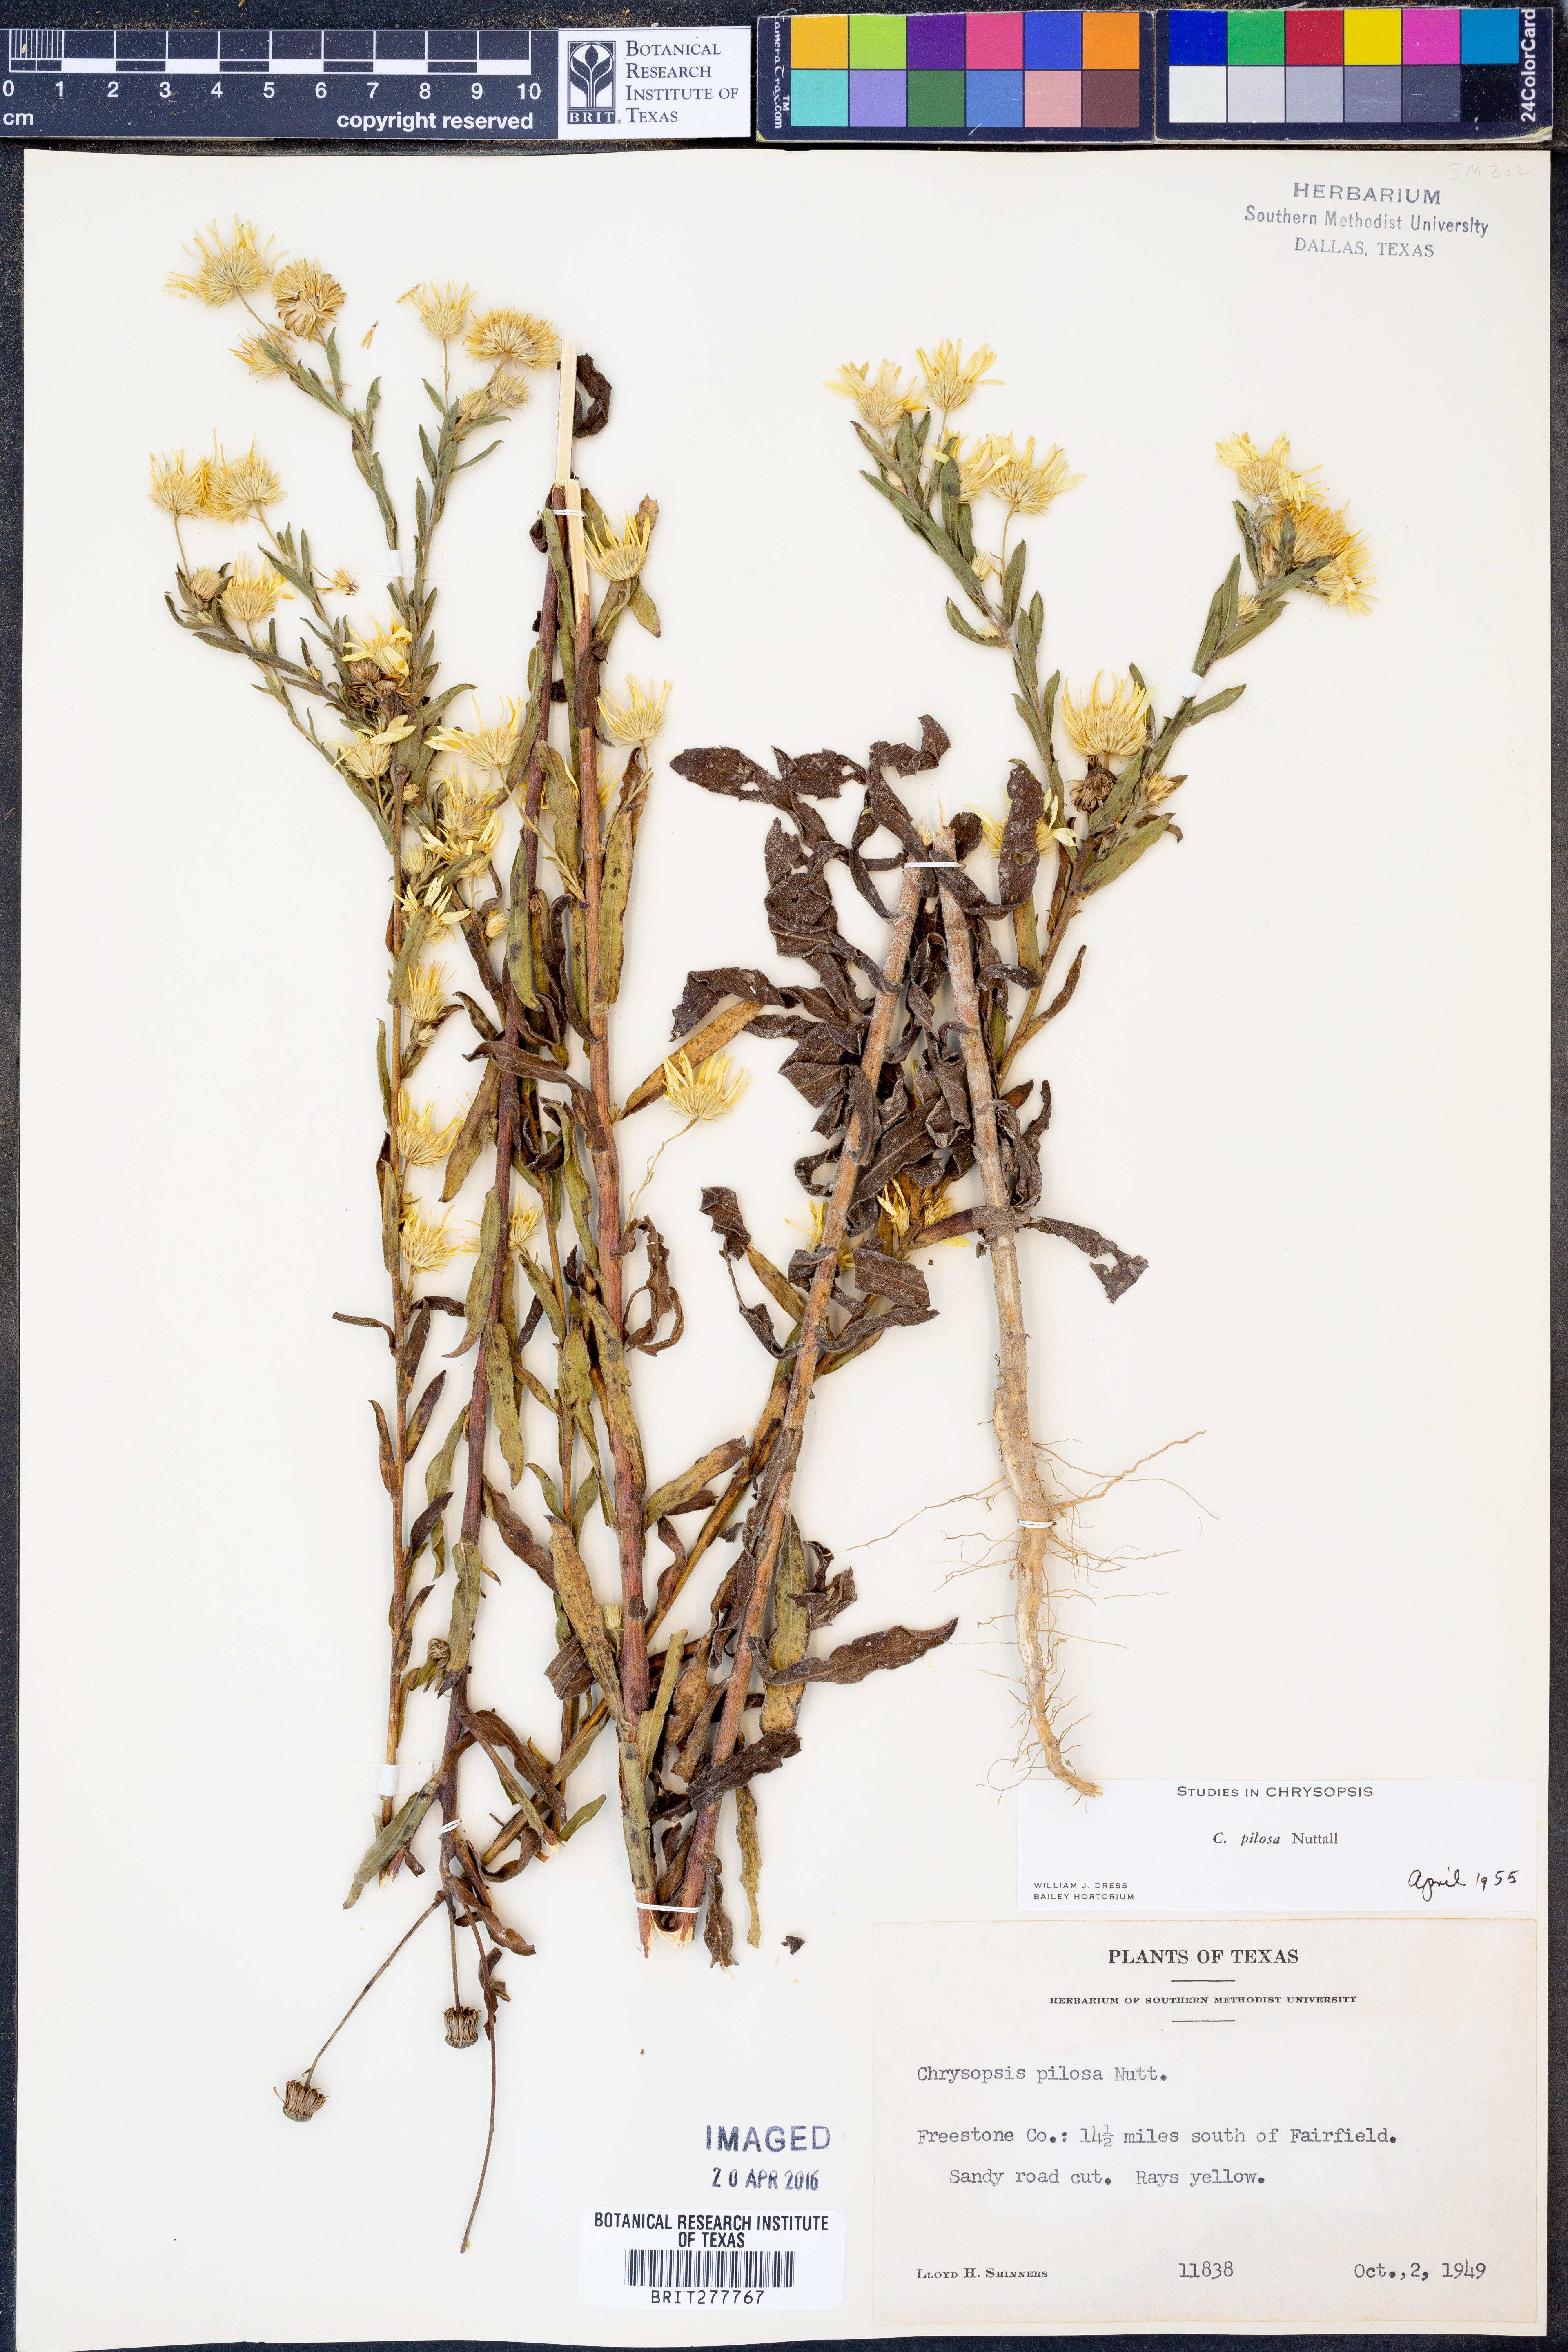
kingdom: Plantae
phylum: Tracheophyta
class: Magnoliopsida
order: Asterales
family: Asteraceae
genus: Bradburia
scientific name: Bradburia pilosa
